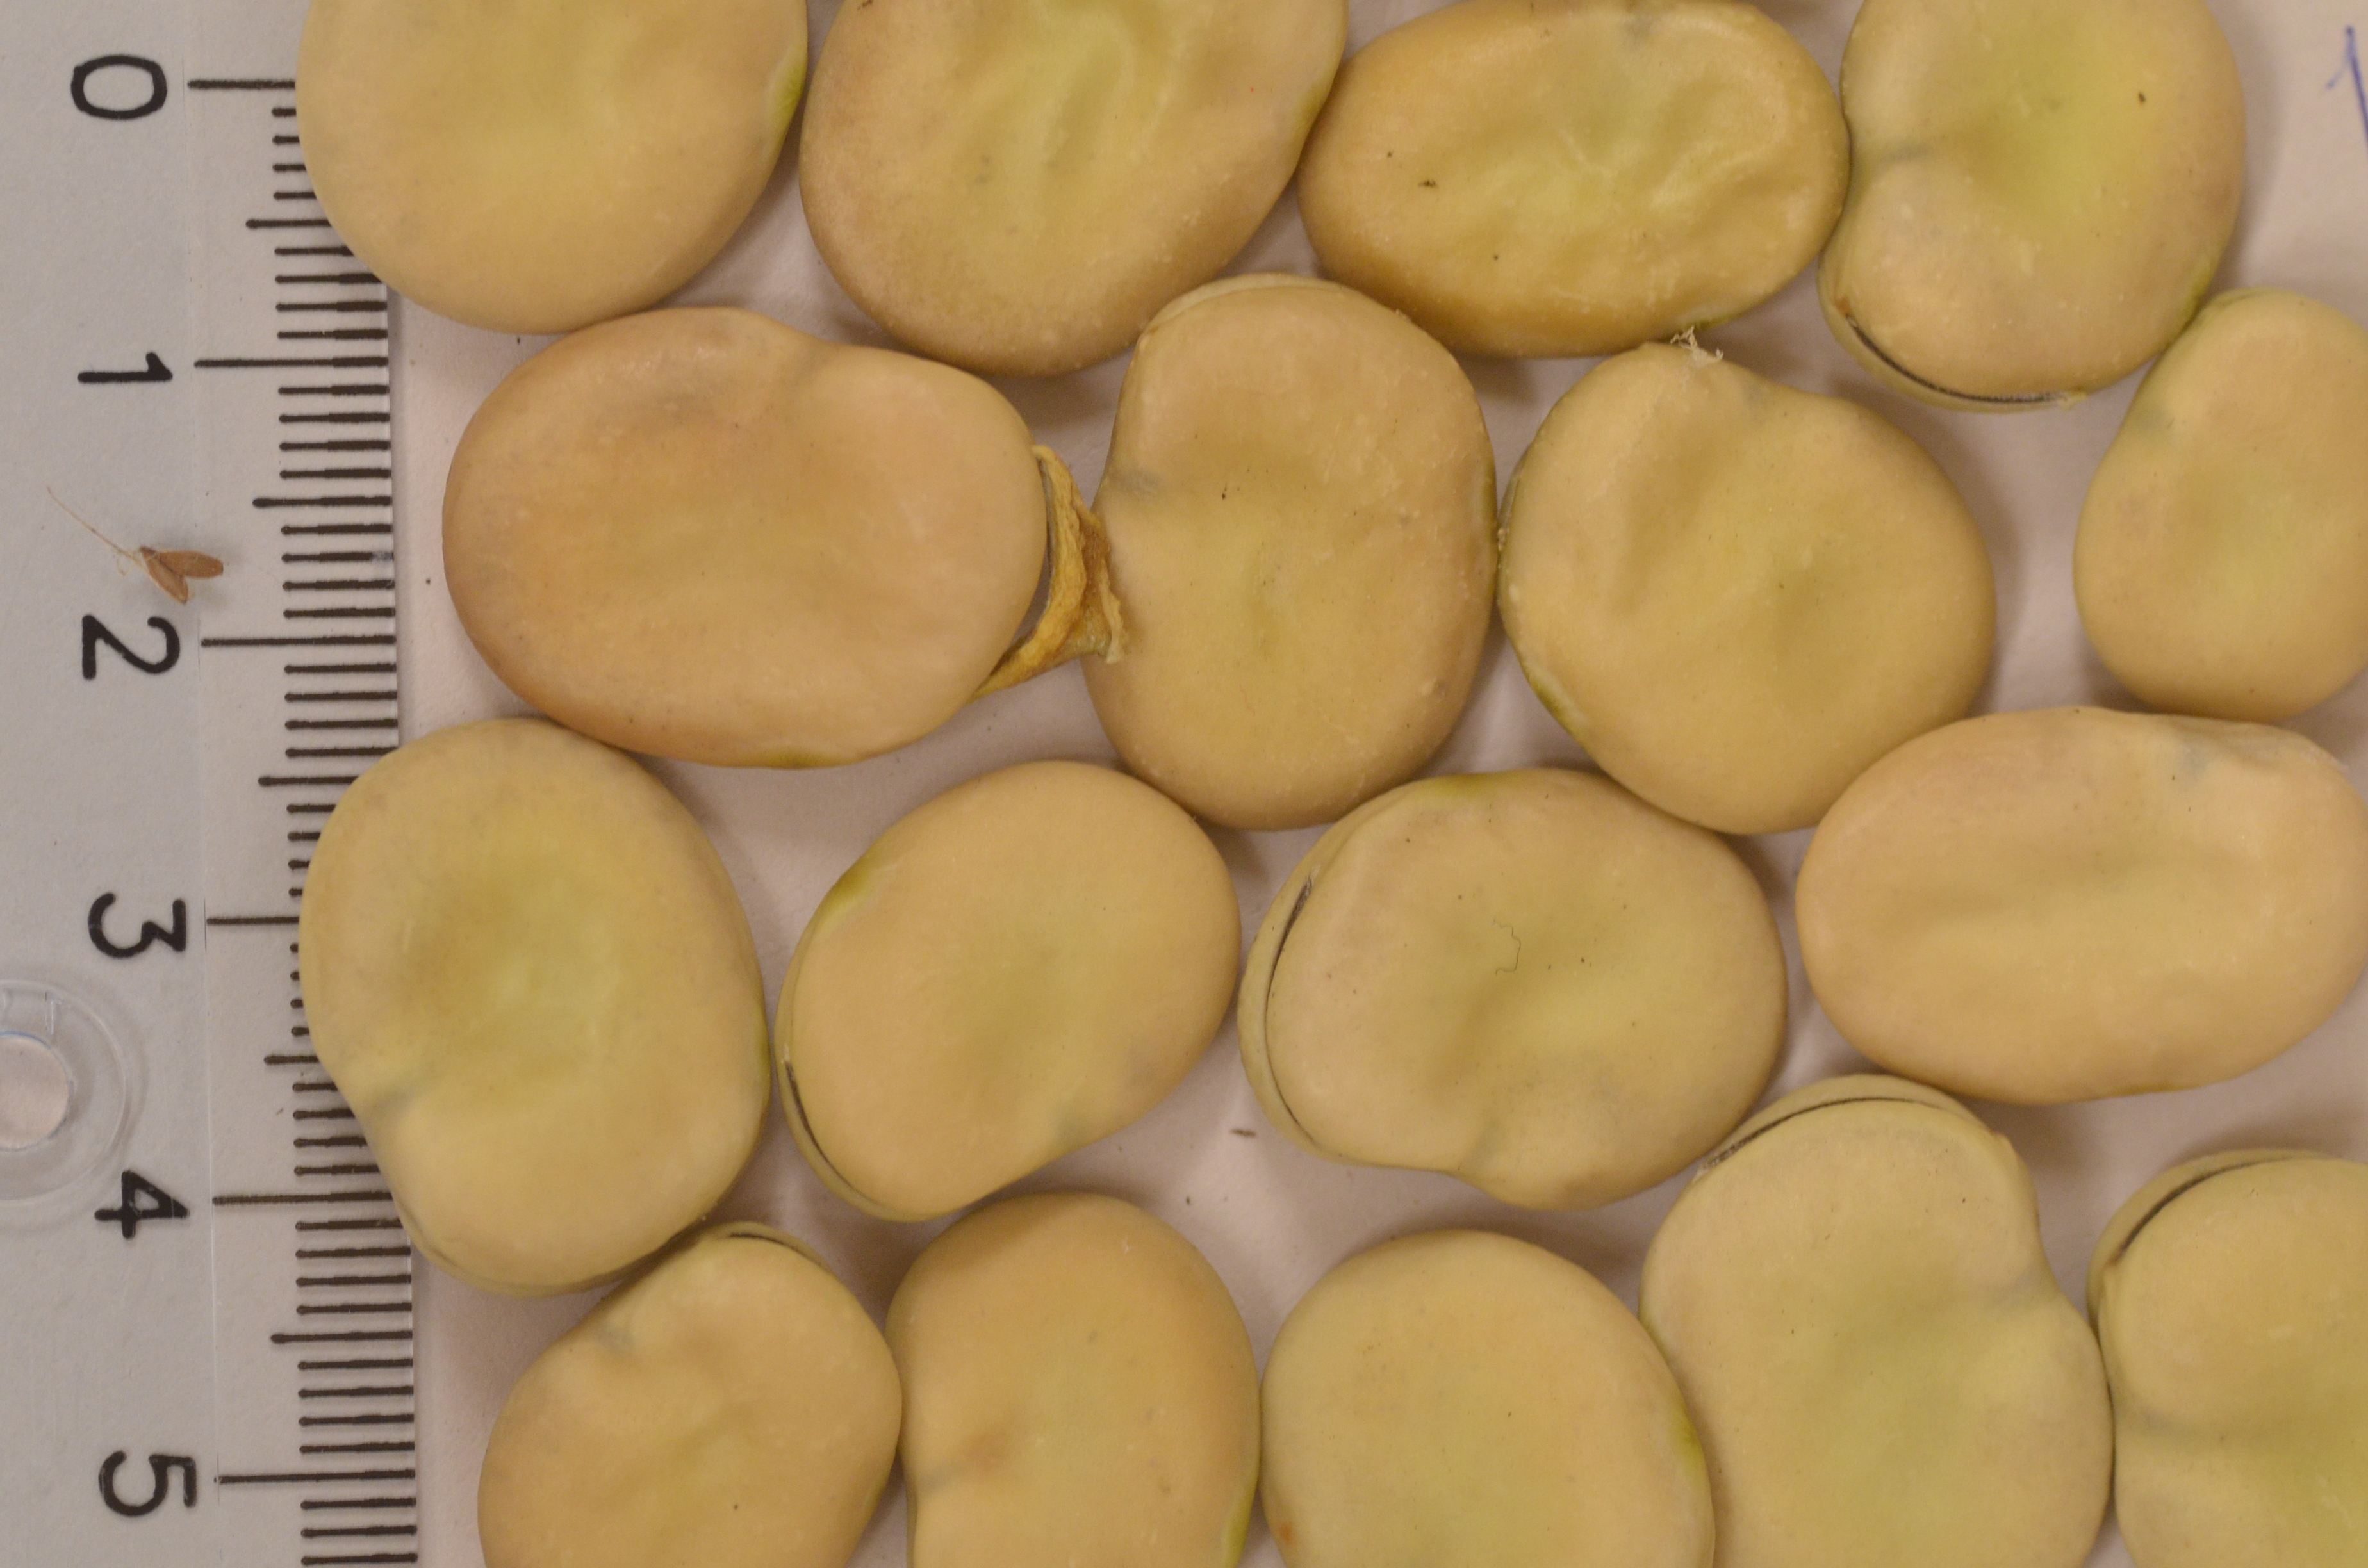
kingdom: Plantae
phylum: Tracheophyta
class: Magnoliopsida
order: Fabales
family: Fabaceae
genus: Vicia
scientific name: Vicia faba
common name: Broad bean
